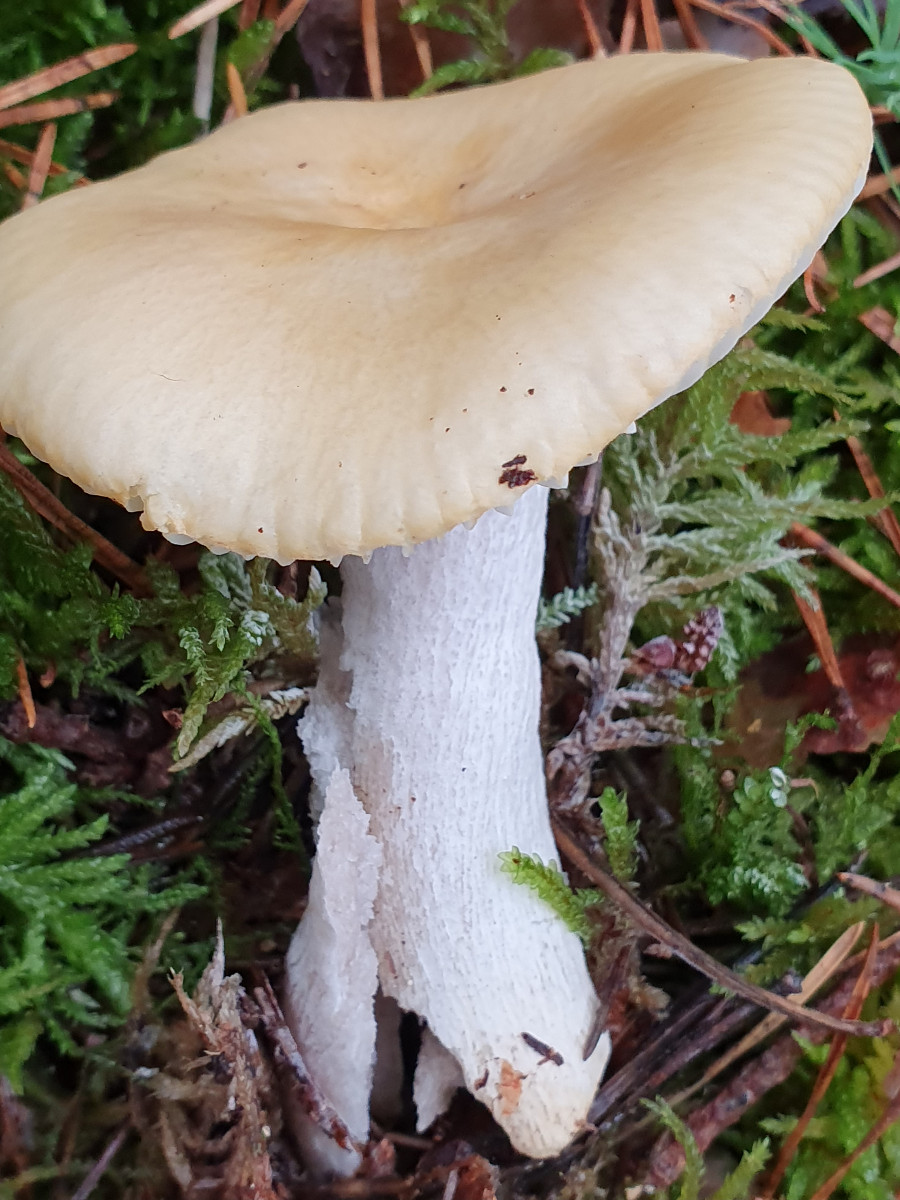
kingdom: Fungi
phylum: Basidiomycota
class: Agaricomycetes
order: Russulales
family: Russulaceae
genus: Russula
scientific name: Russula ochroleuca
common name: okkergul skørhat
